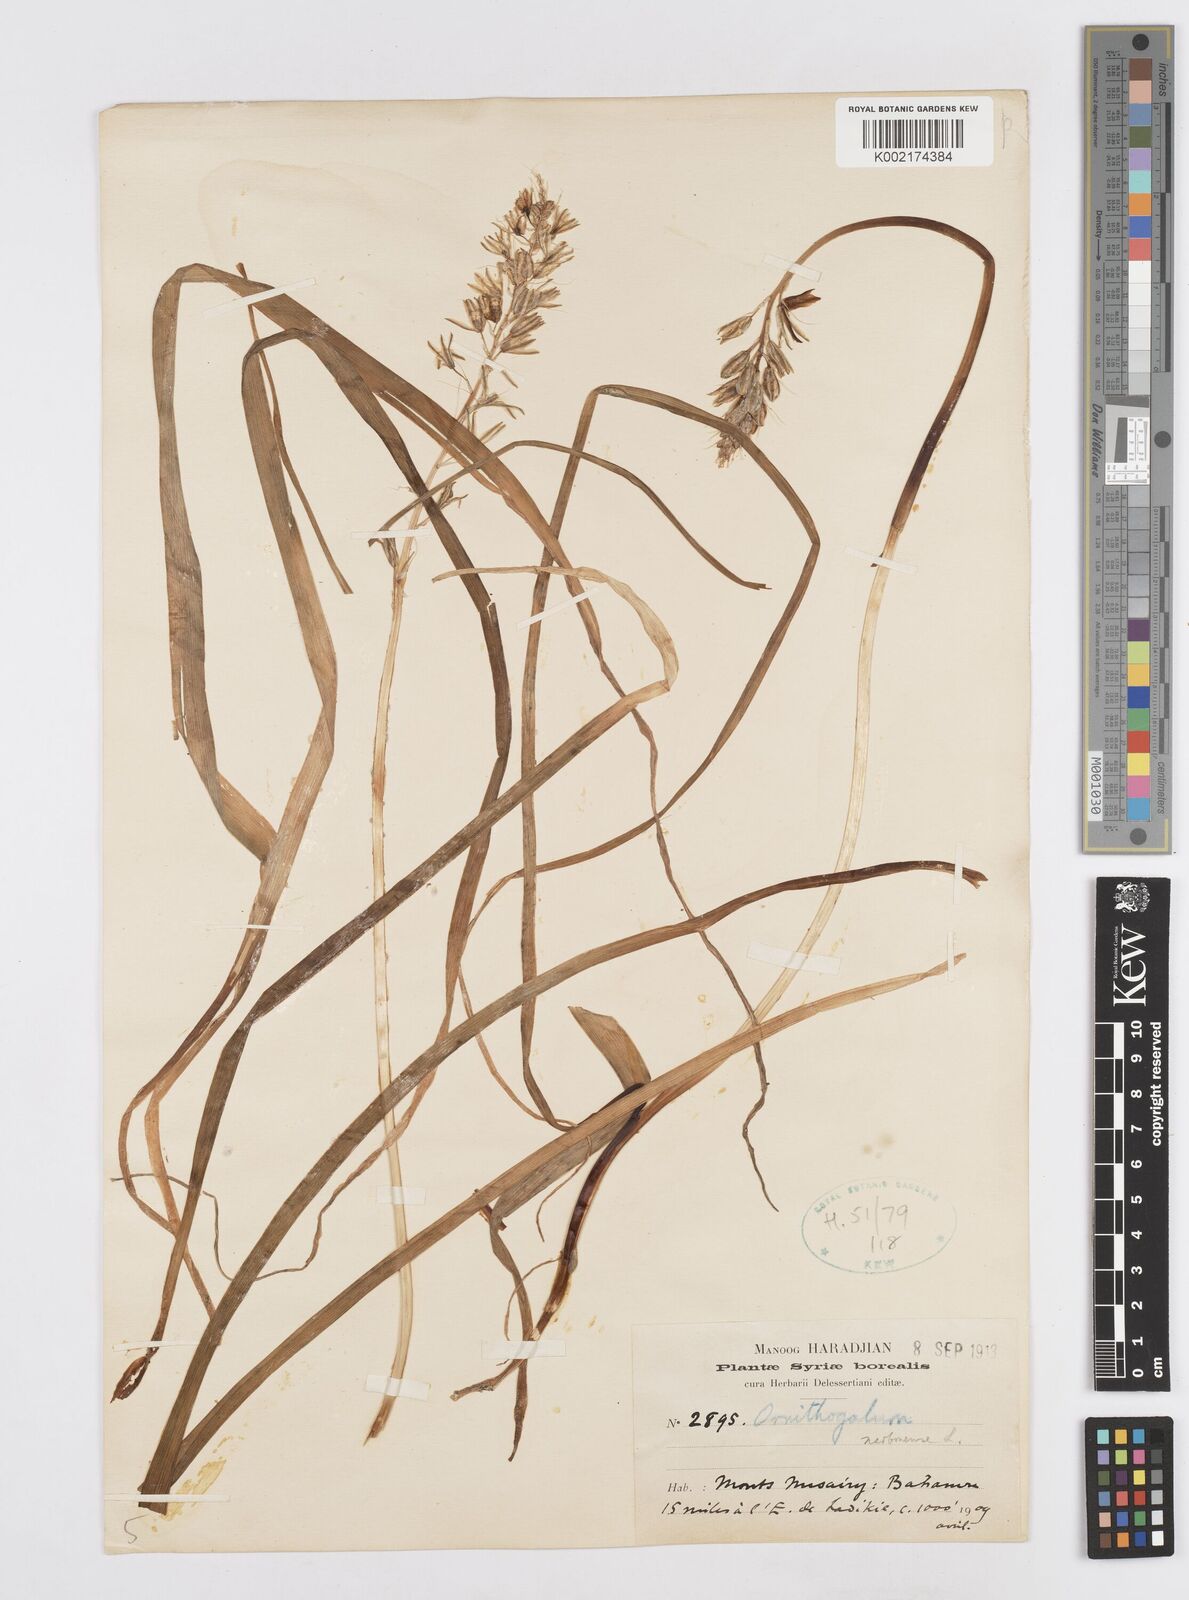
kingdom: Plantae
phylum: Tracheophyta
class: Liliopsida
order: Asparagales
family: Asparagaceae
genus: Ornithogalum
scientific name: Ornithogalum narbonense
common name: Bath-asparagus
